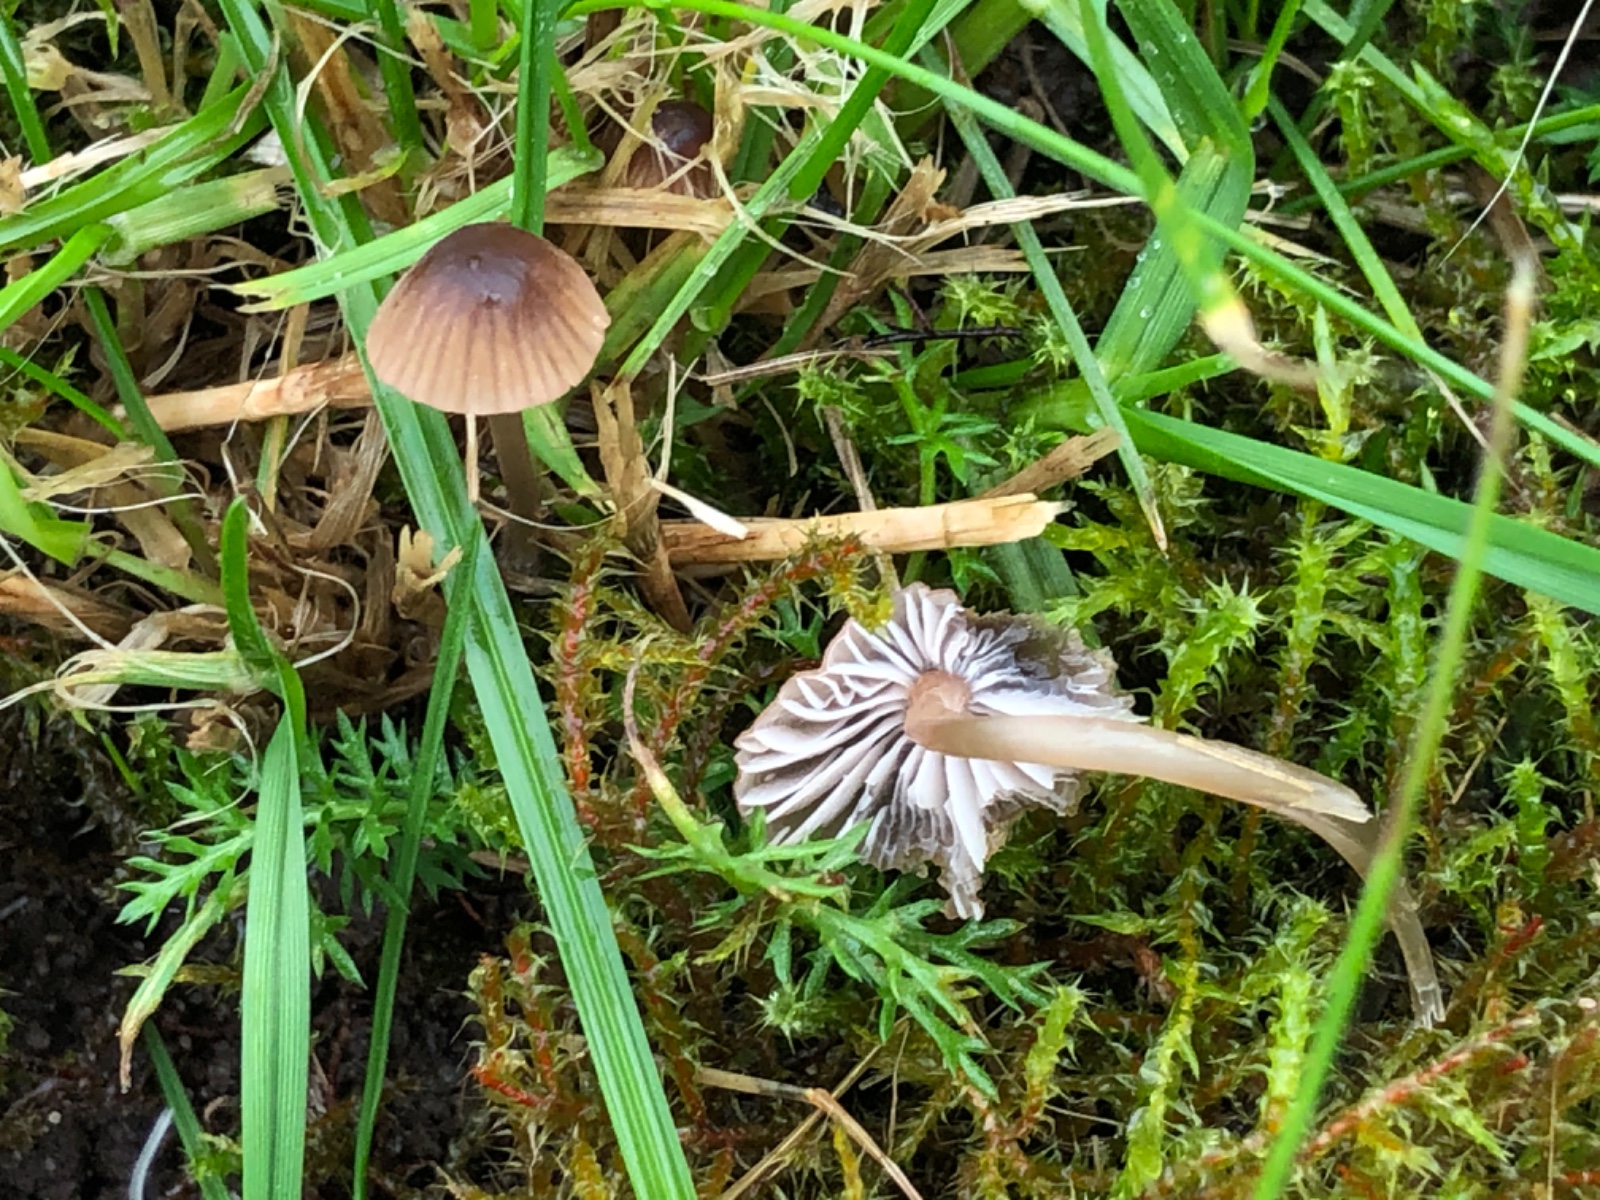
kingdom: Fungi
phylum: Basidiomycota
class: Agaricomycetes
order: Agaricales
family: Mycenaceae
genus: Mycena
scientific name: Mycena olivaceomarginata
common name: brunægget huesvamp
